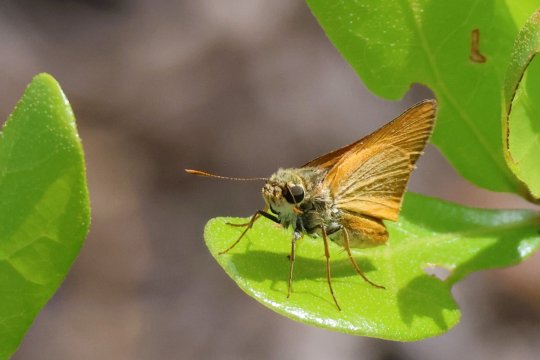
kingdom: Animalia
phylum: Arthropoda
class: Insecta
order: Lepidoptera
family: Hesperiidae
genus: Atrytone
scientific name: Atrytone delaware
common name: Delaware Skipper
